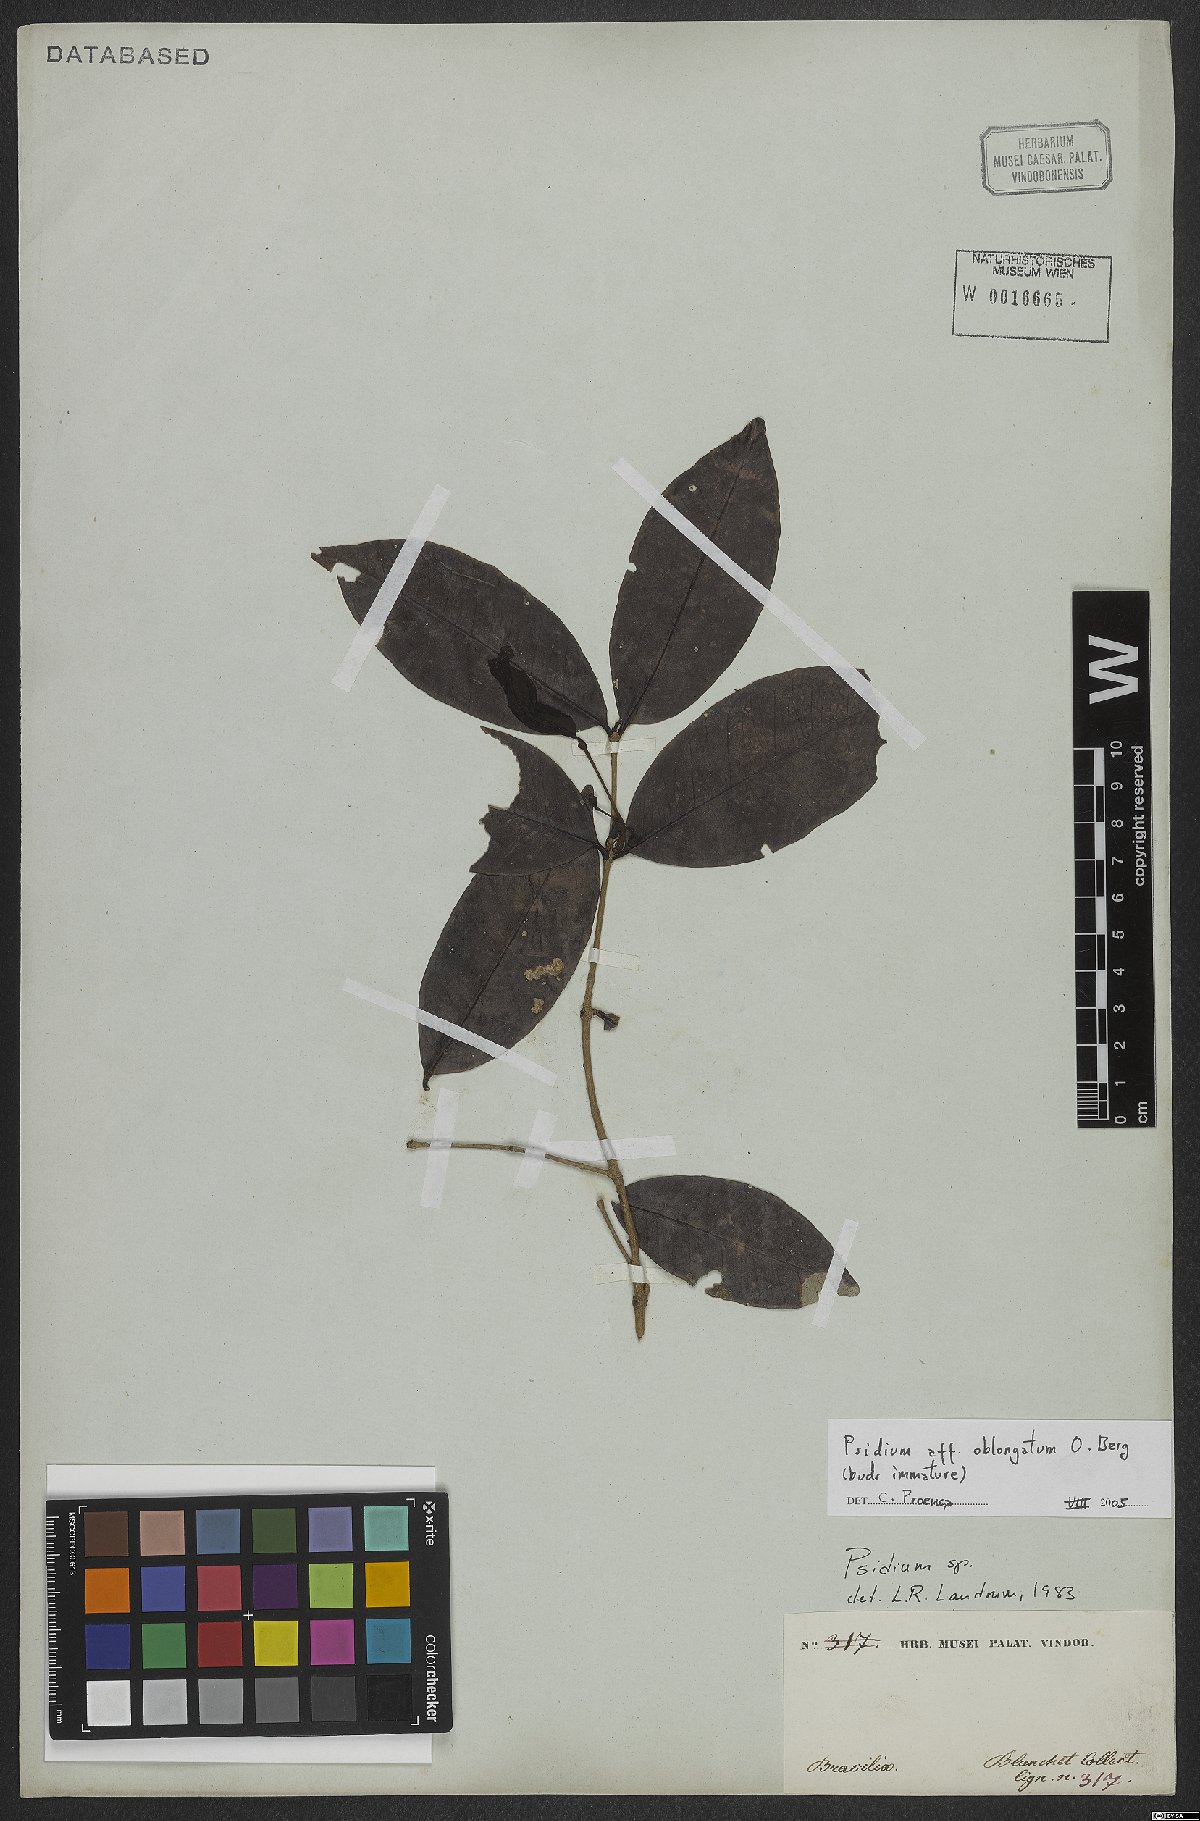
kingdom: Plantae
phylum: Tracheophyta
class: Magnoliopsida
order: Myrtales
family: Myrtaceae
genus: Psidium
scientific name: Psidium oblongatum
